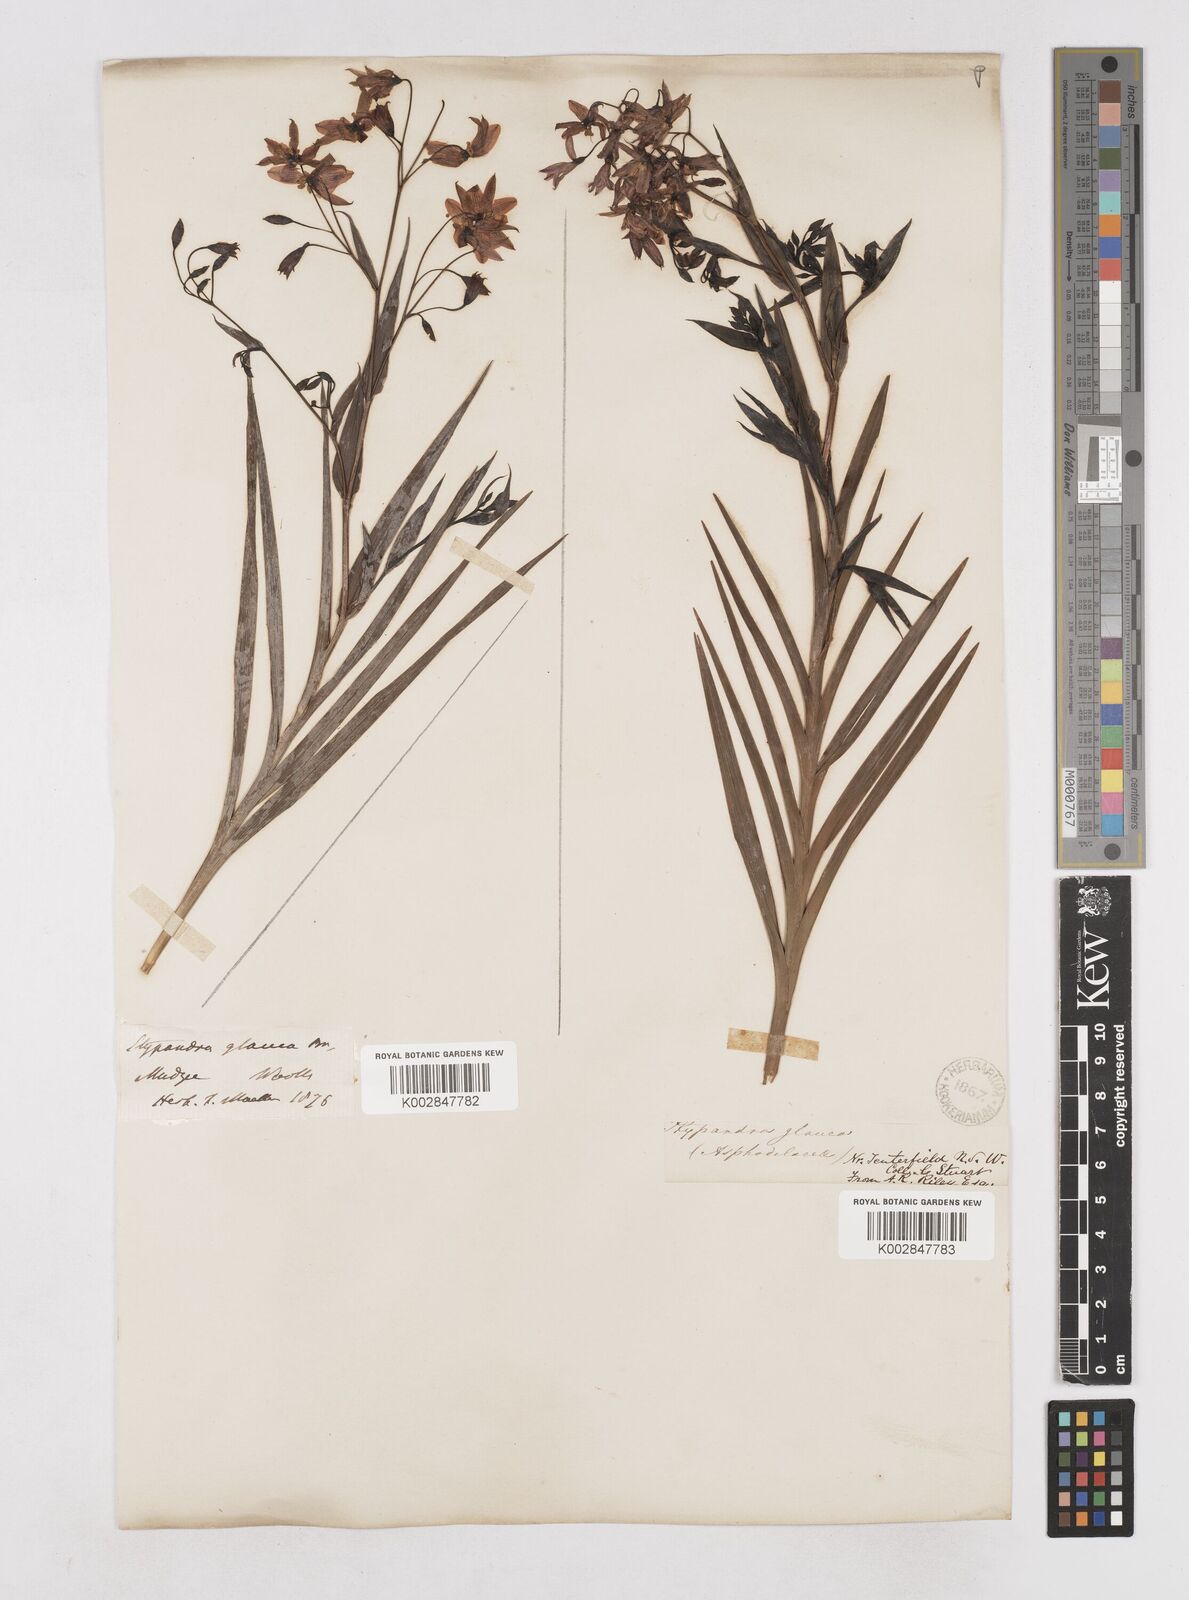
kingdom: Plantae
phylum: Tracheophyta
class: Liliopsida
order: Asparagales
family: Asphodelaceae
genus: Stypandra
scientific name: Stypandra glauca
